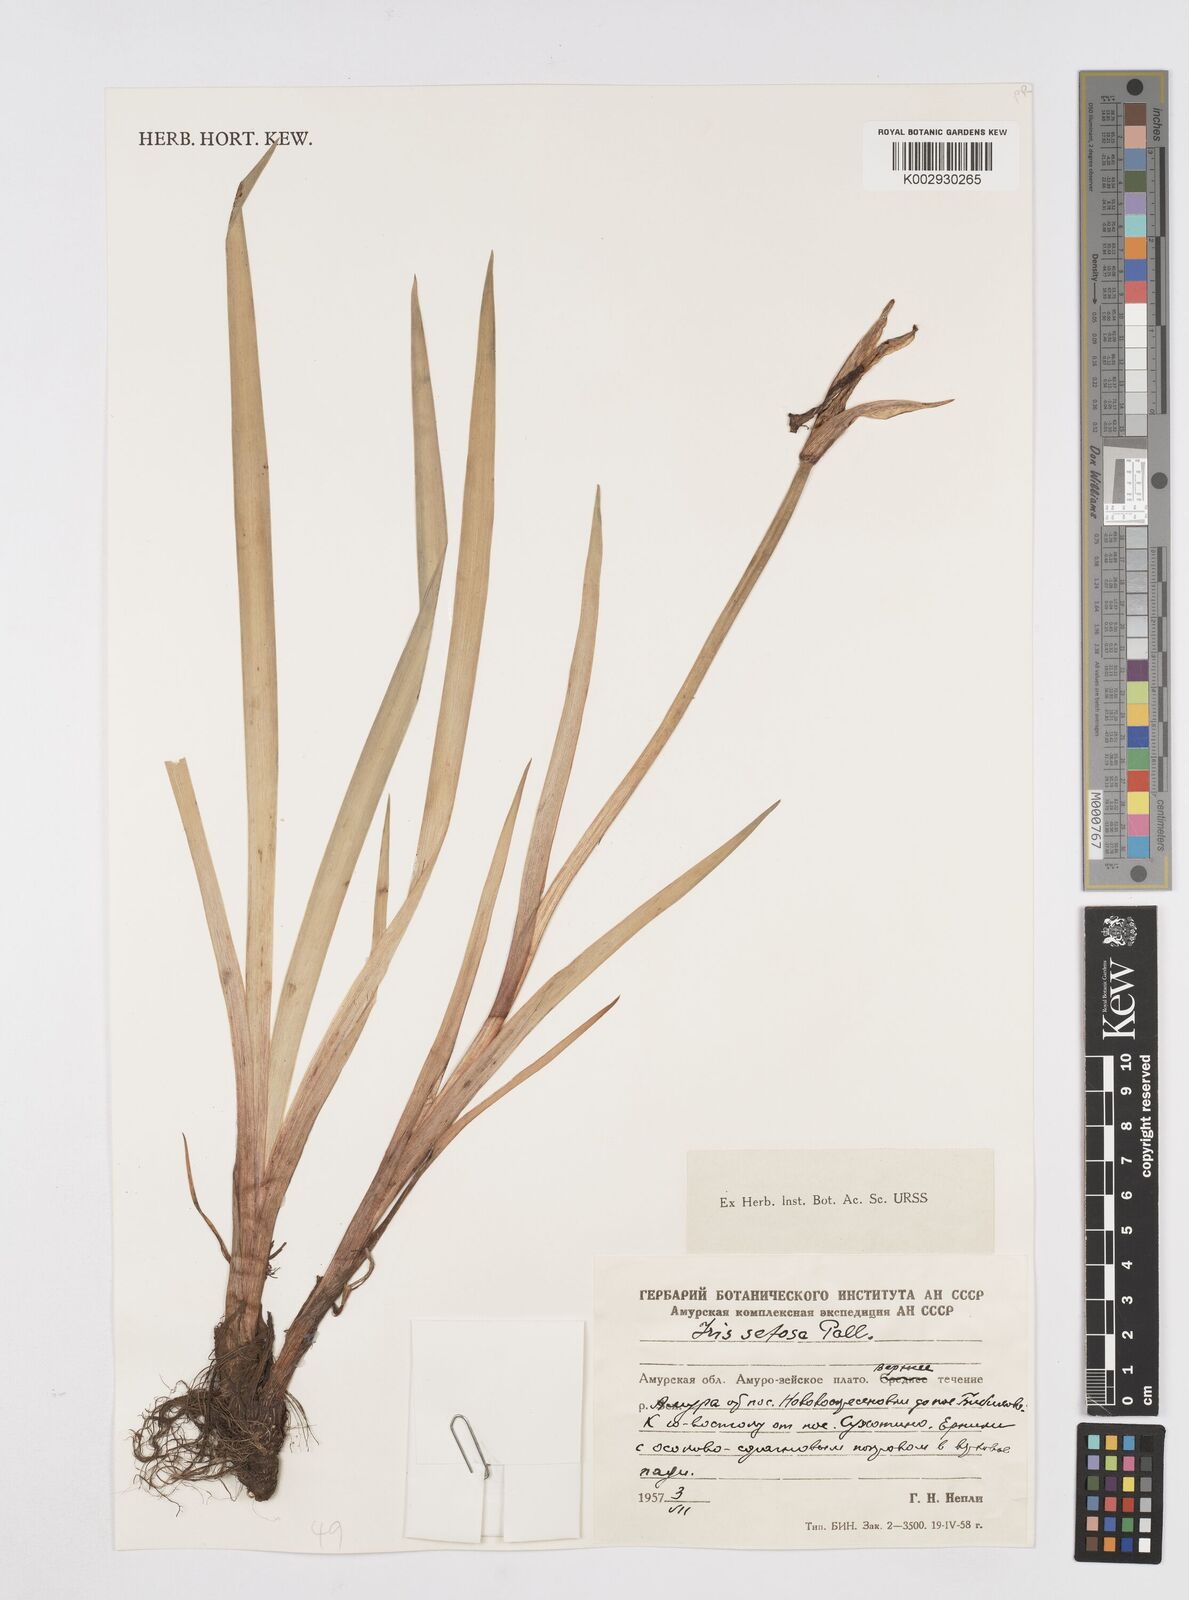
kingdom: Plantae
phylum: Tracheophyta
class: Liliopsida
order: Asparagales
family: Iridaceae
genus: Iris
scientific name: Iris setosa
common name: Arctic blue flag
